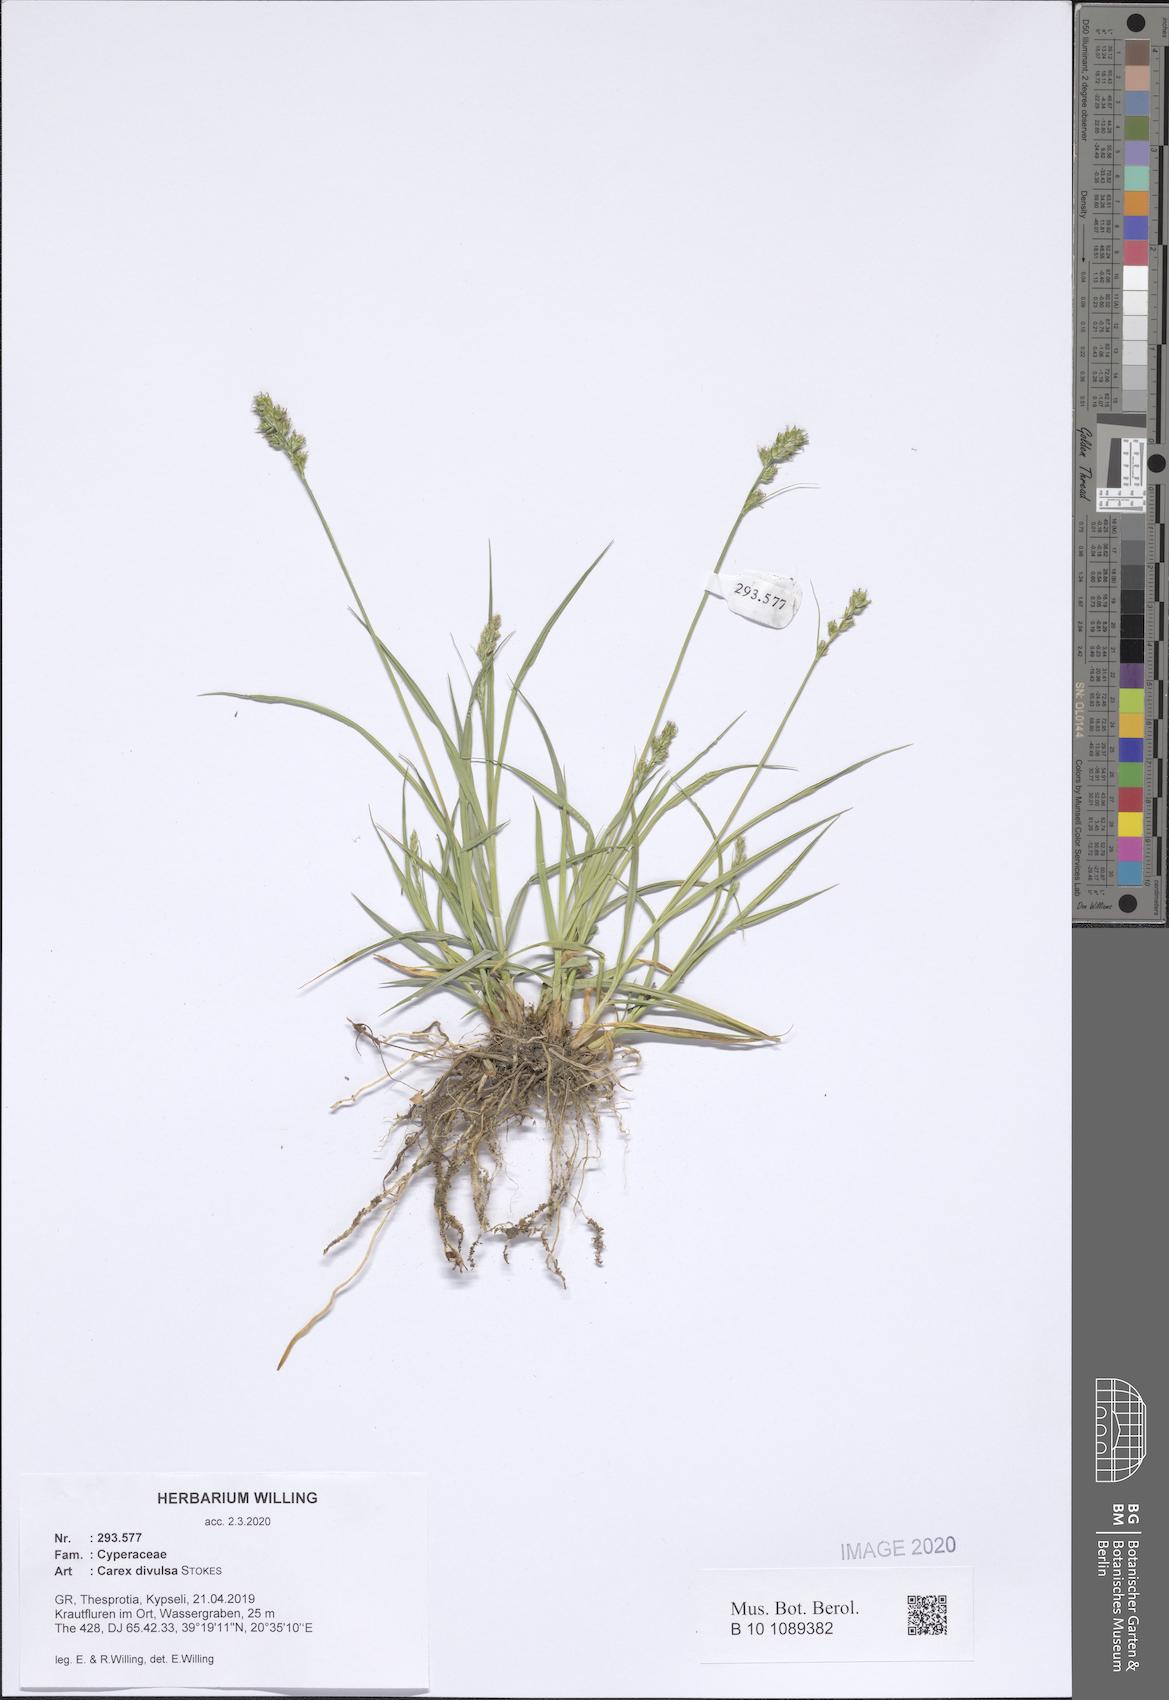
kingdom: Plantae
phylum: Tracheophyta
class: Liliopsida
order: Poales
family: Cyperaceae
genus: Carex
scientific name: Carex divulsa
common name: Grassland sedge
